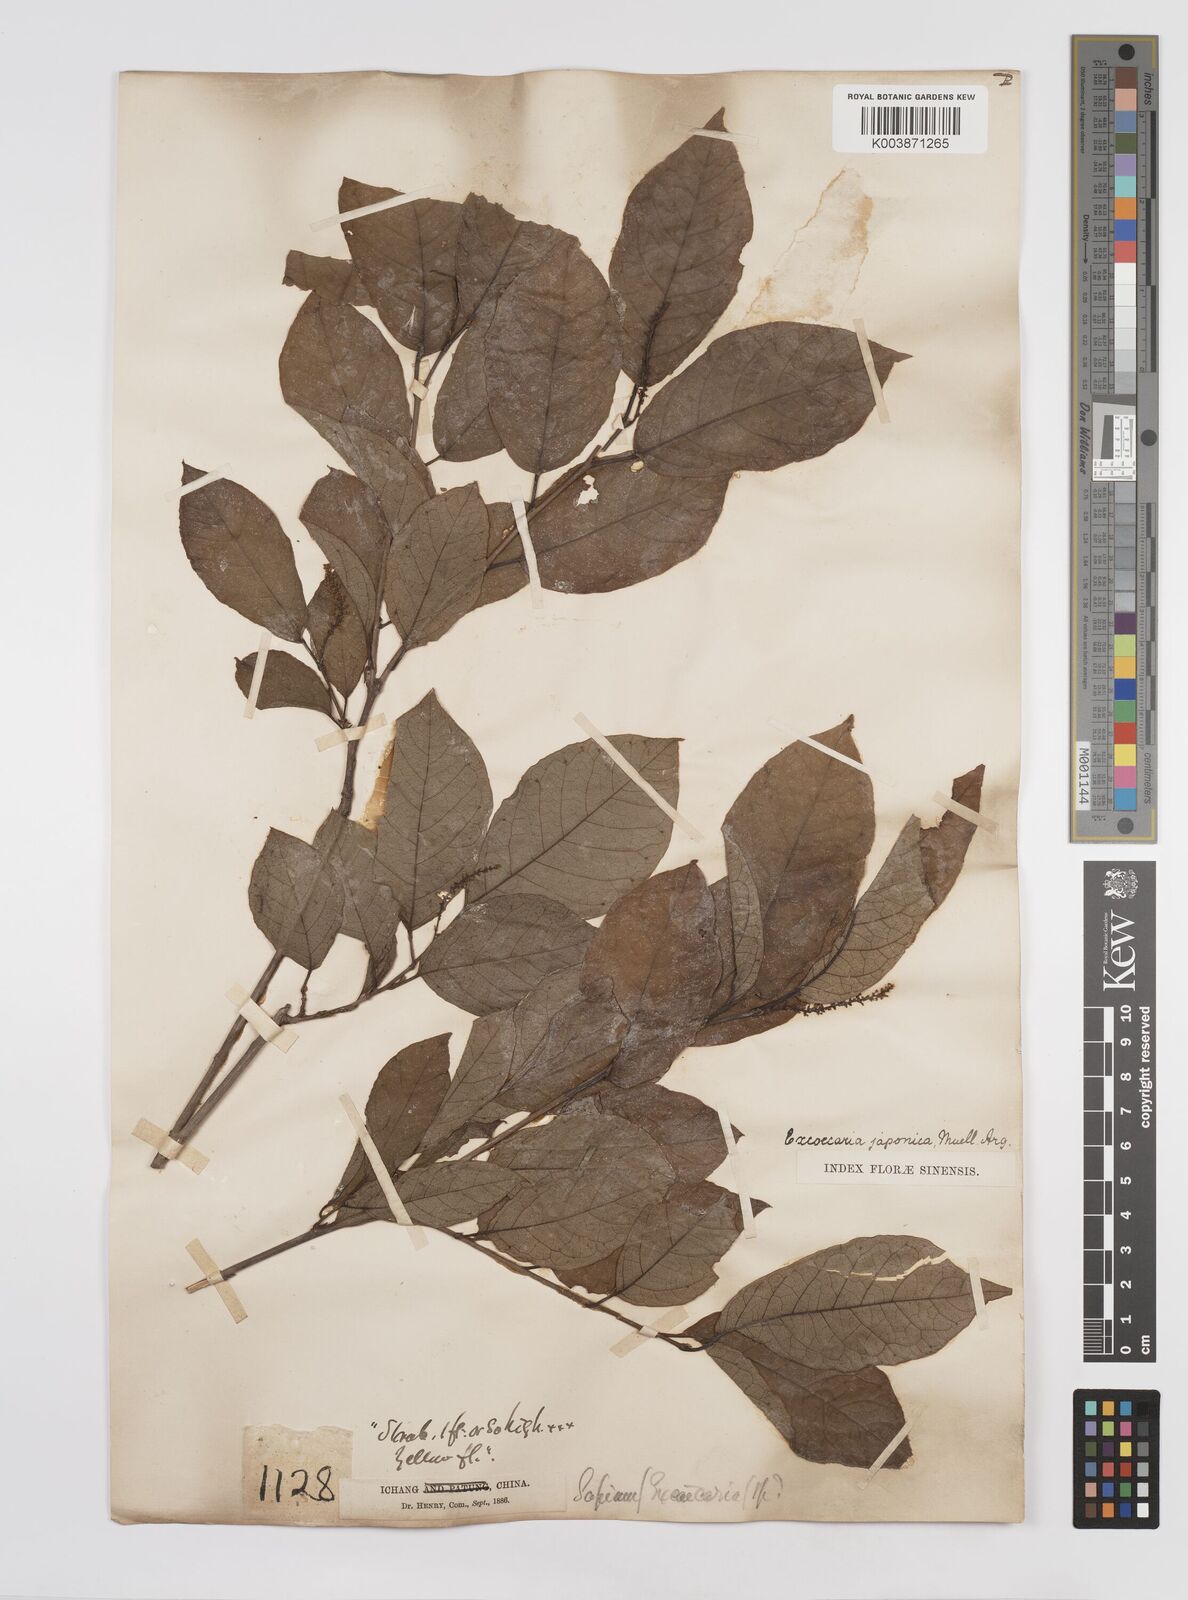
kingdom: Plantae
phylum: Tracheophyta
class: Magnoliopsida
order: Malpighiales
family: Euphorbiaceae
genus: Neoshirakia
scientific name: Neoshirakia japonica
